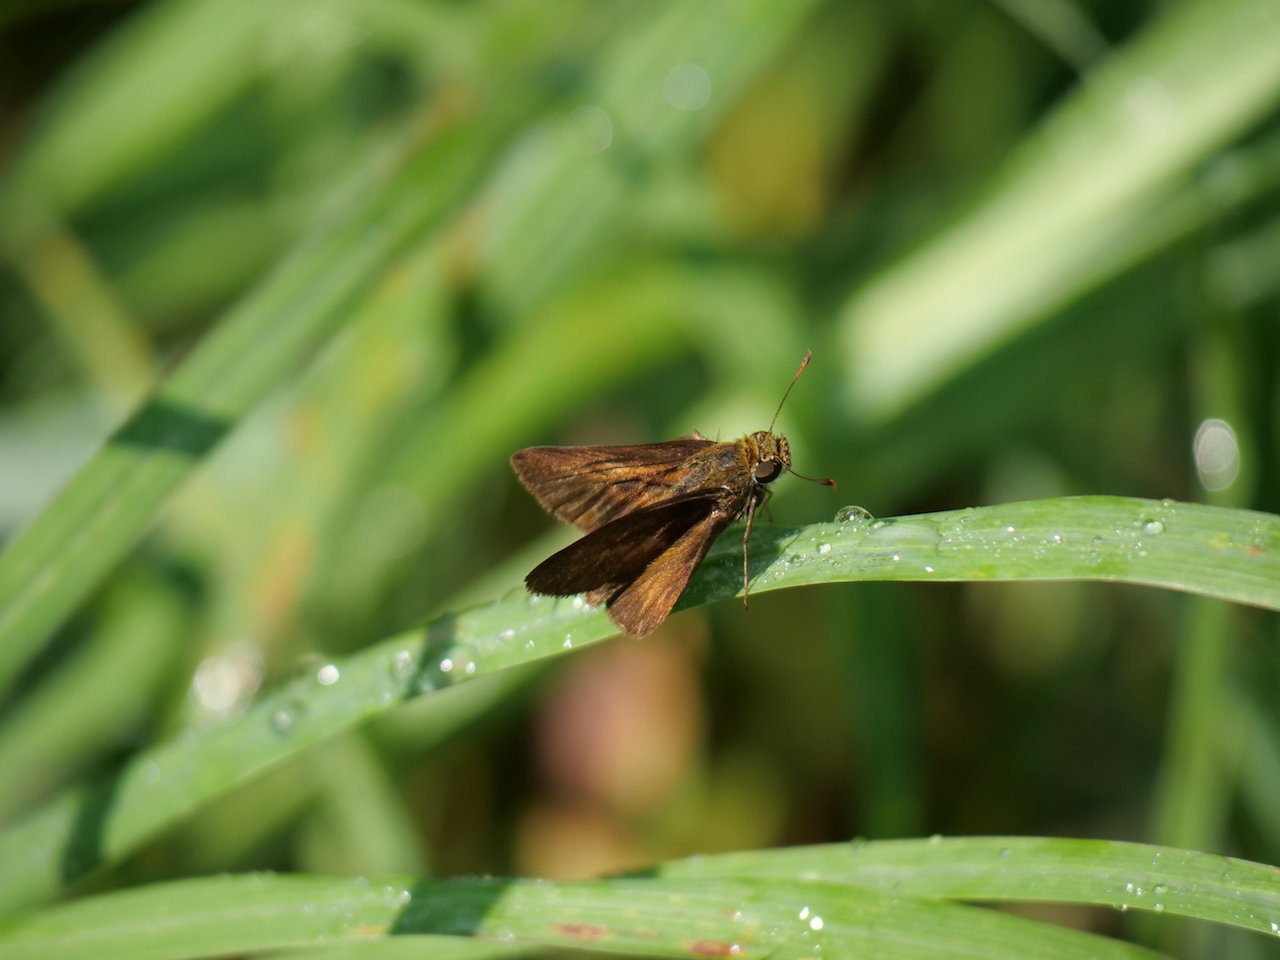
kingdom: Animalia
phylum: Arthropoda
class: Insecta
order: Lepidoptera
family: Hesperiidae
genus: Euphyes
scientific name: Euphyes vestris
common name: Dun Skipper
